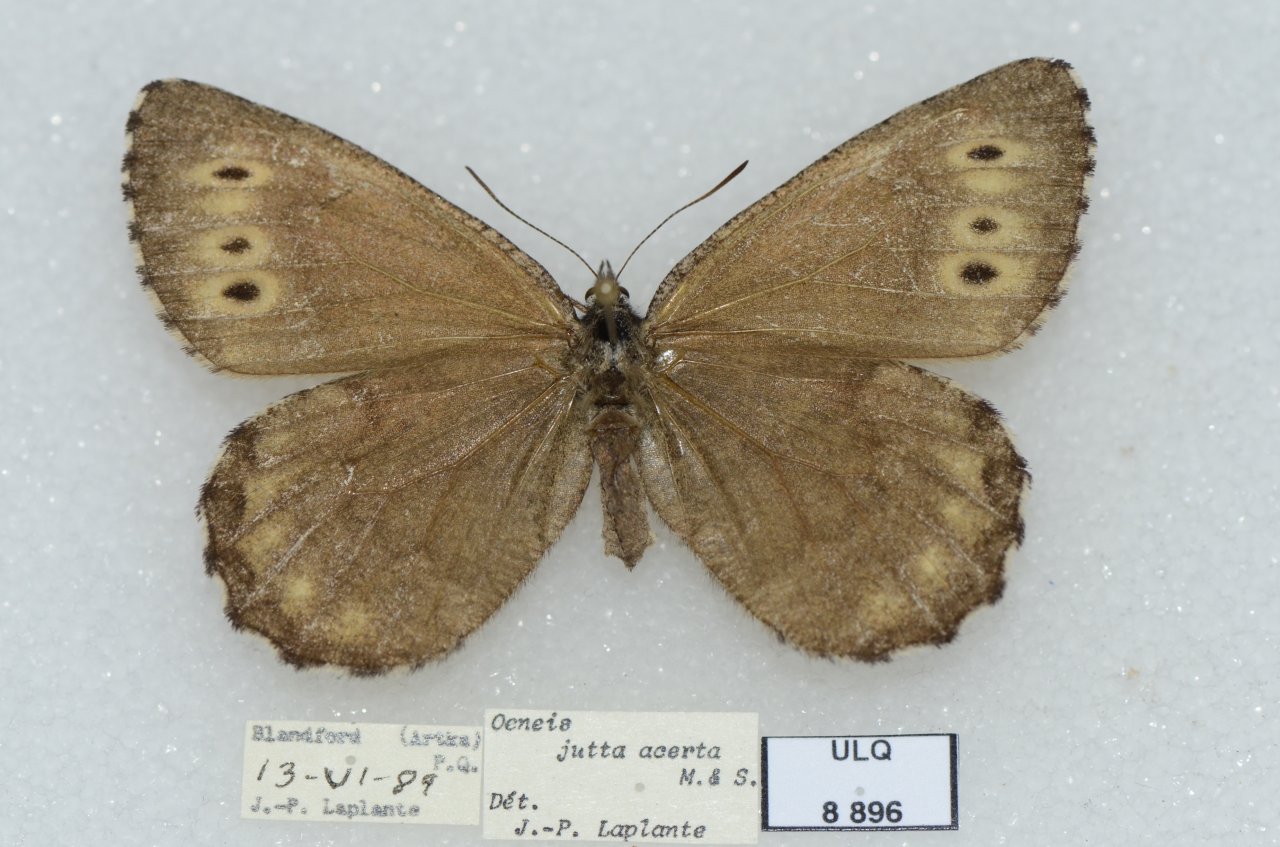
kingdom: Animalia
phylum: Arthropoda
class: Insecta
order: Lepidoptera
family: Nymphalidae
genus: Oeneis
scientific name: Oeneis jutta
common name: Jutta Arctic
